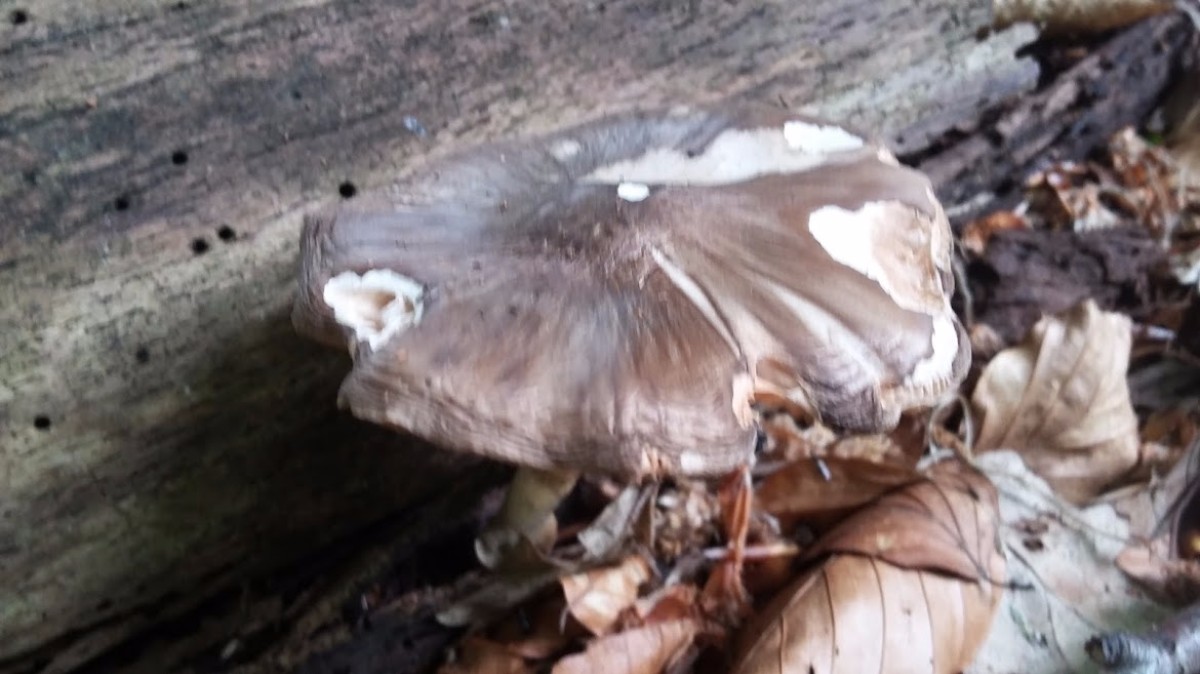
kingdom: Fungi
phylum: Basidiomycota
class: Agaricomycetes
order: Agaricales
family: Tricholomataceae
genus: Megacollybia
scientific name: Megacollybia platyphylla
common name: bredbladet væbnerhat
